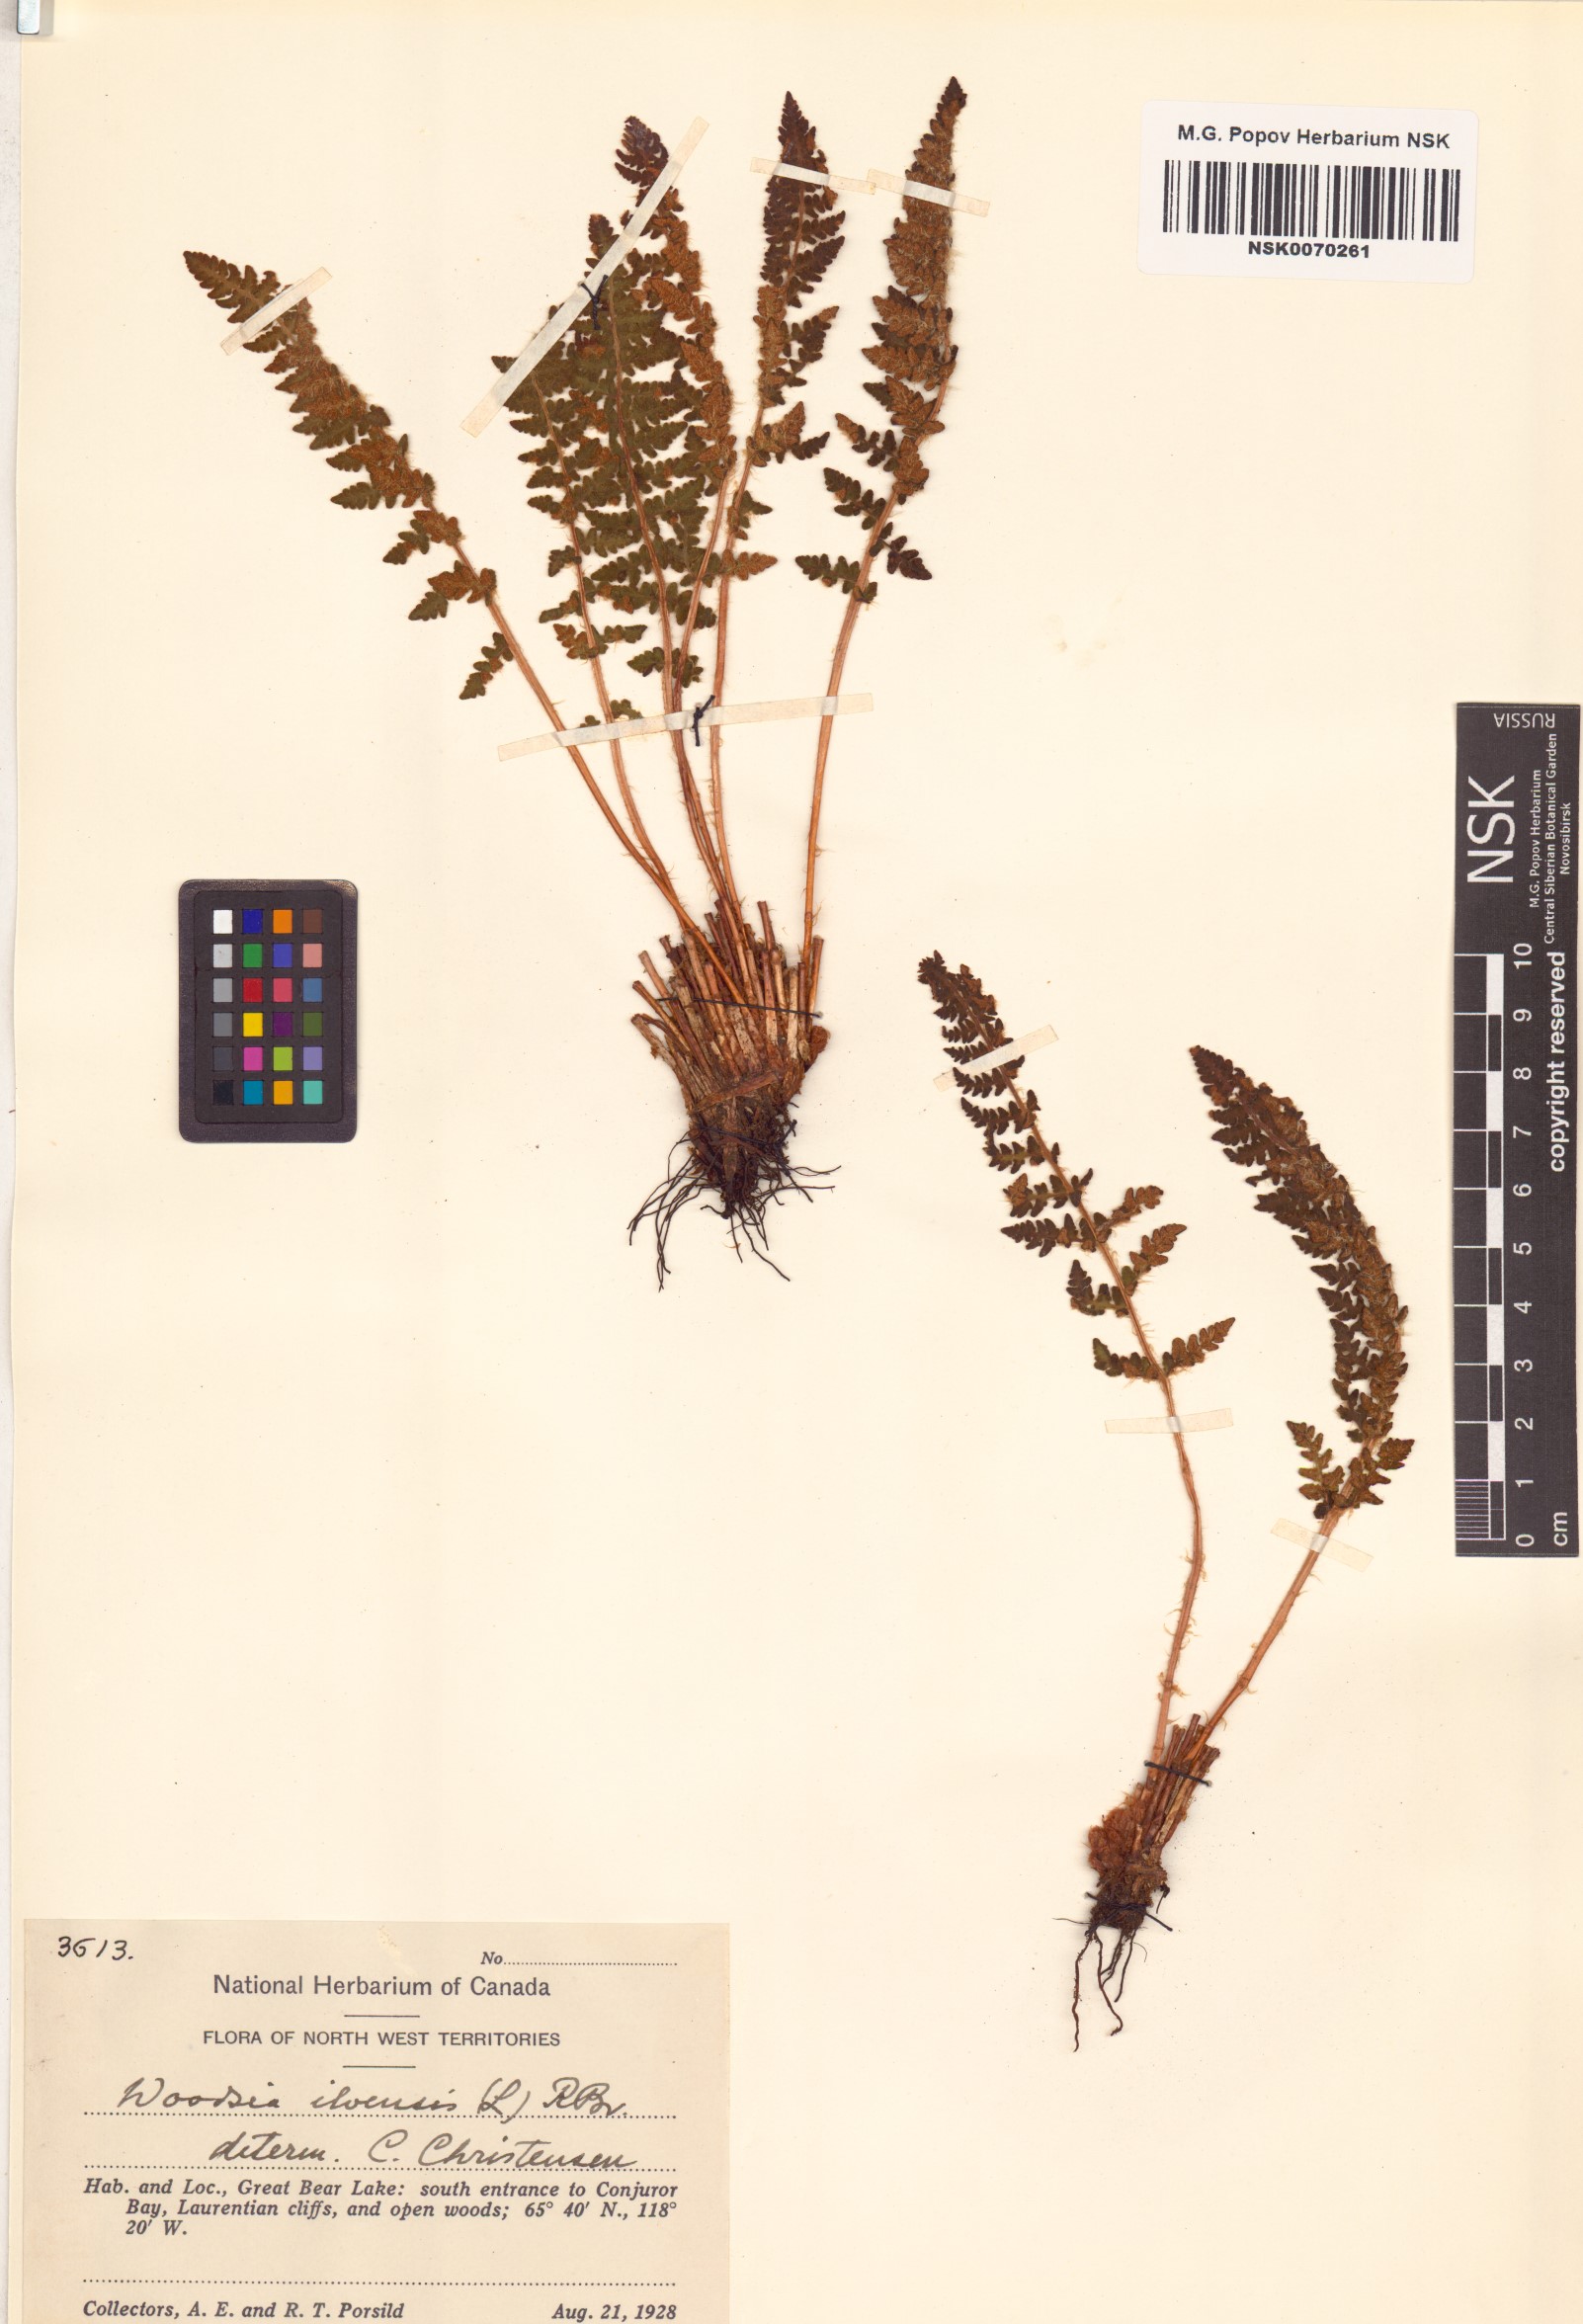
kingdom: Plantae
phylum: Tracheophyta
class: Polypodiopsida
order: Polypodiales
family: Woodsiaceae
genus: Woodsia
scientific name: Woodsia ilvensis
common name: Fragrant woodsia
